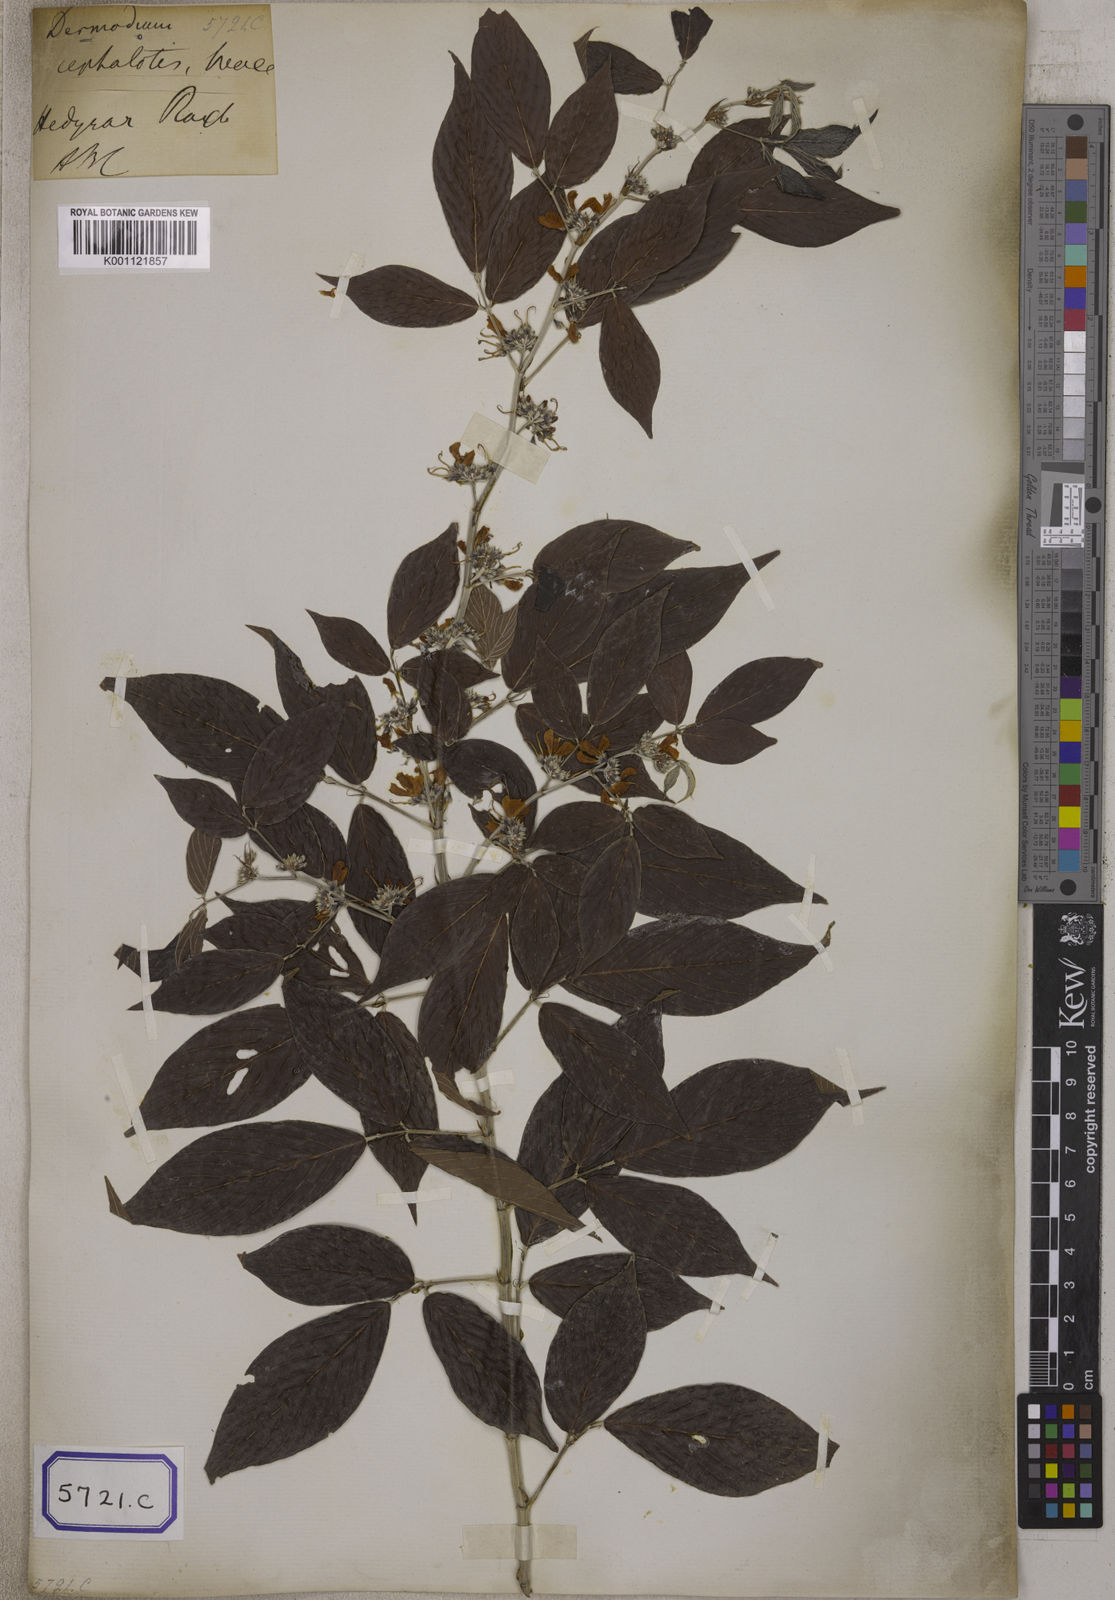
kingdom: Plantae
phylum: Tracheophyta
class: Magnoliopsida
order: Fabales
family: Fabaceae
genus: Desmodium
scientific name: Desmodium
